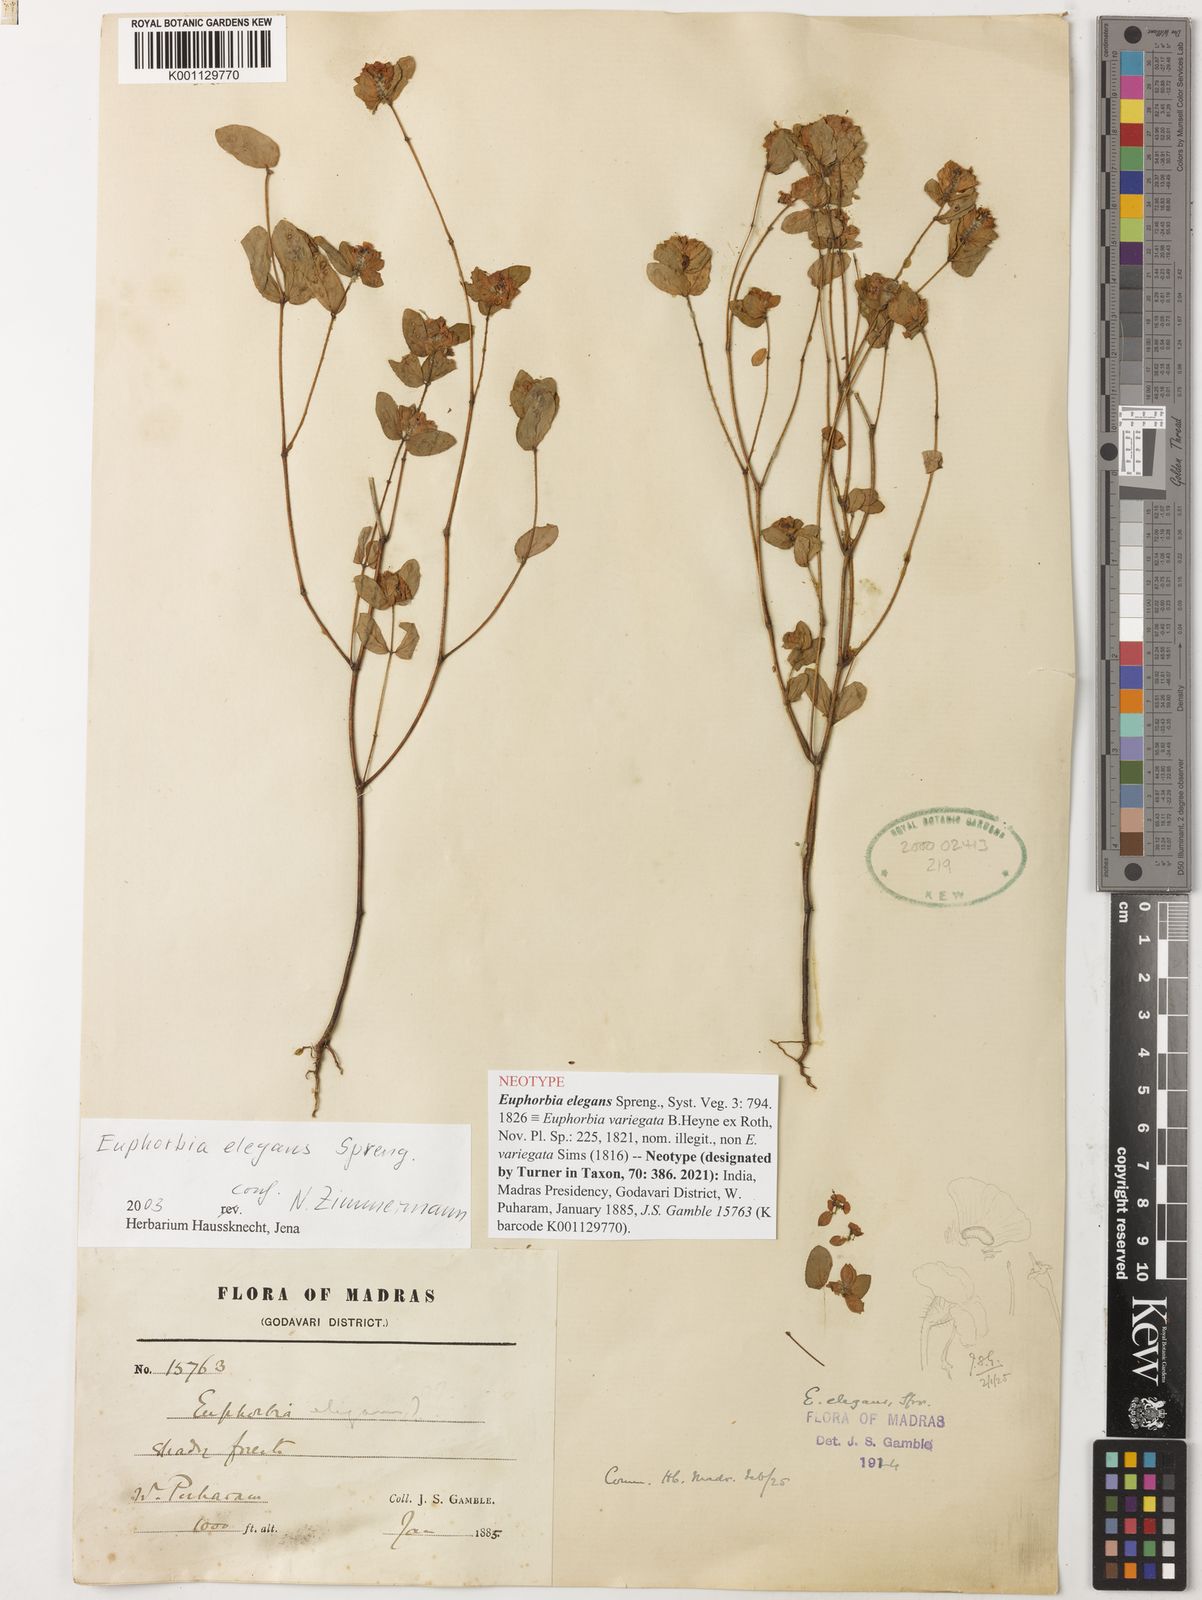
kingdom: Plantae
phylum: Tracheophyta
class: Magnoliopsida
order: Malpighiales
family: Euphorbiaceae
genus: Euphorbia
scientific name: Euphorbia elegans
